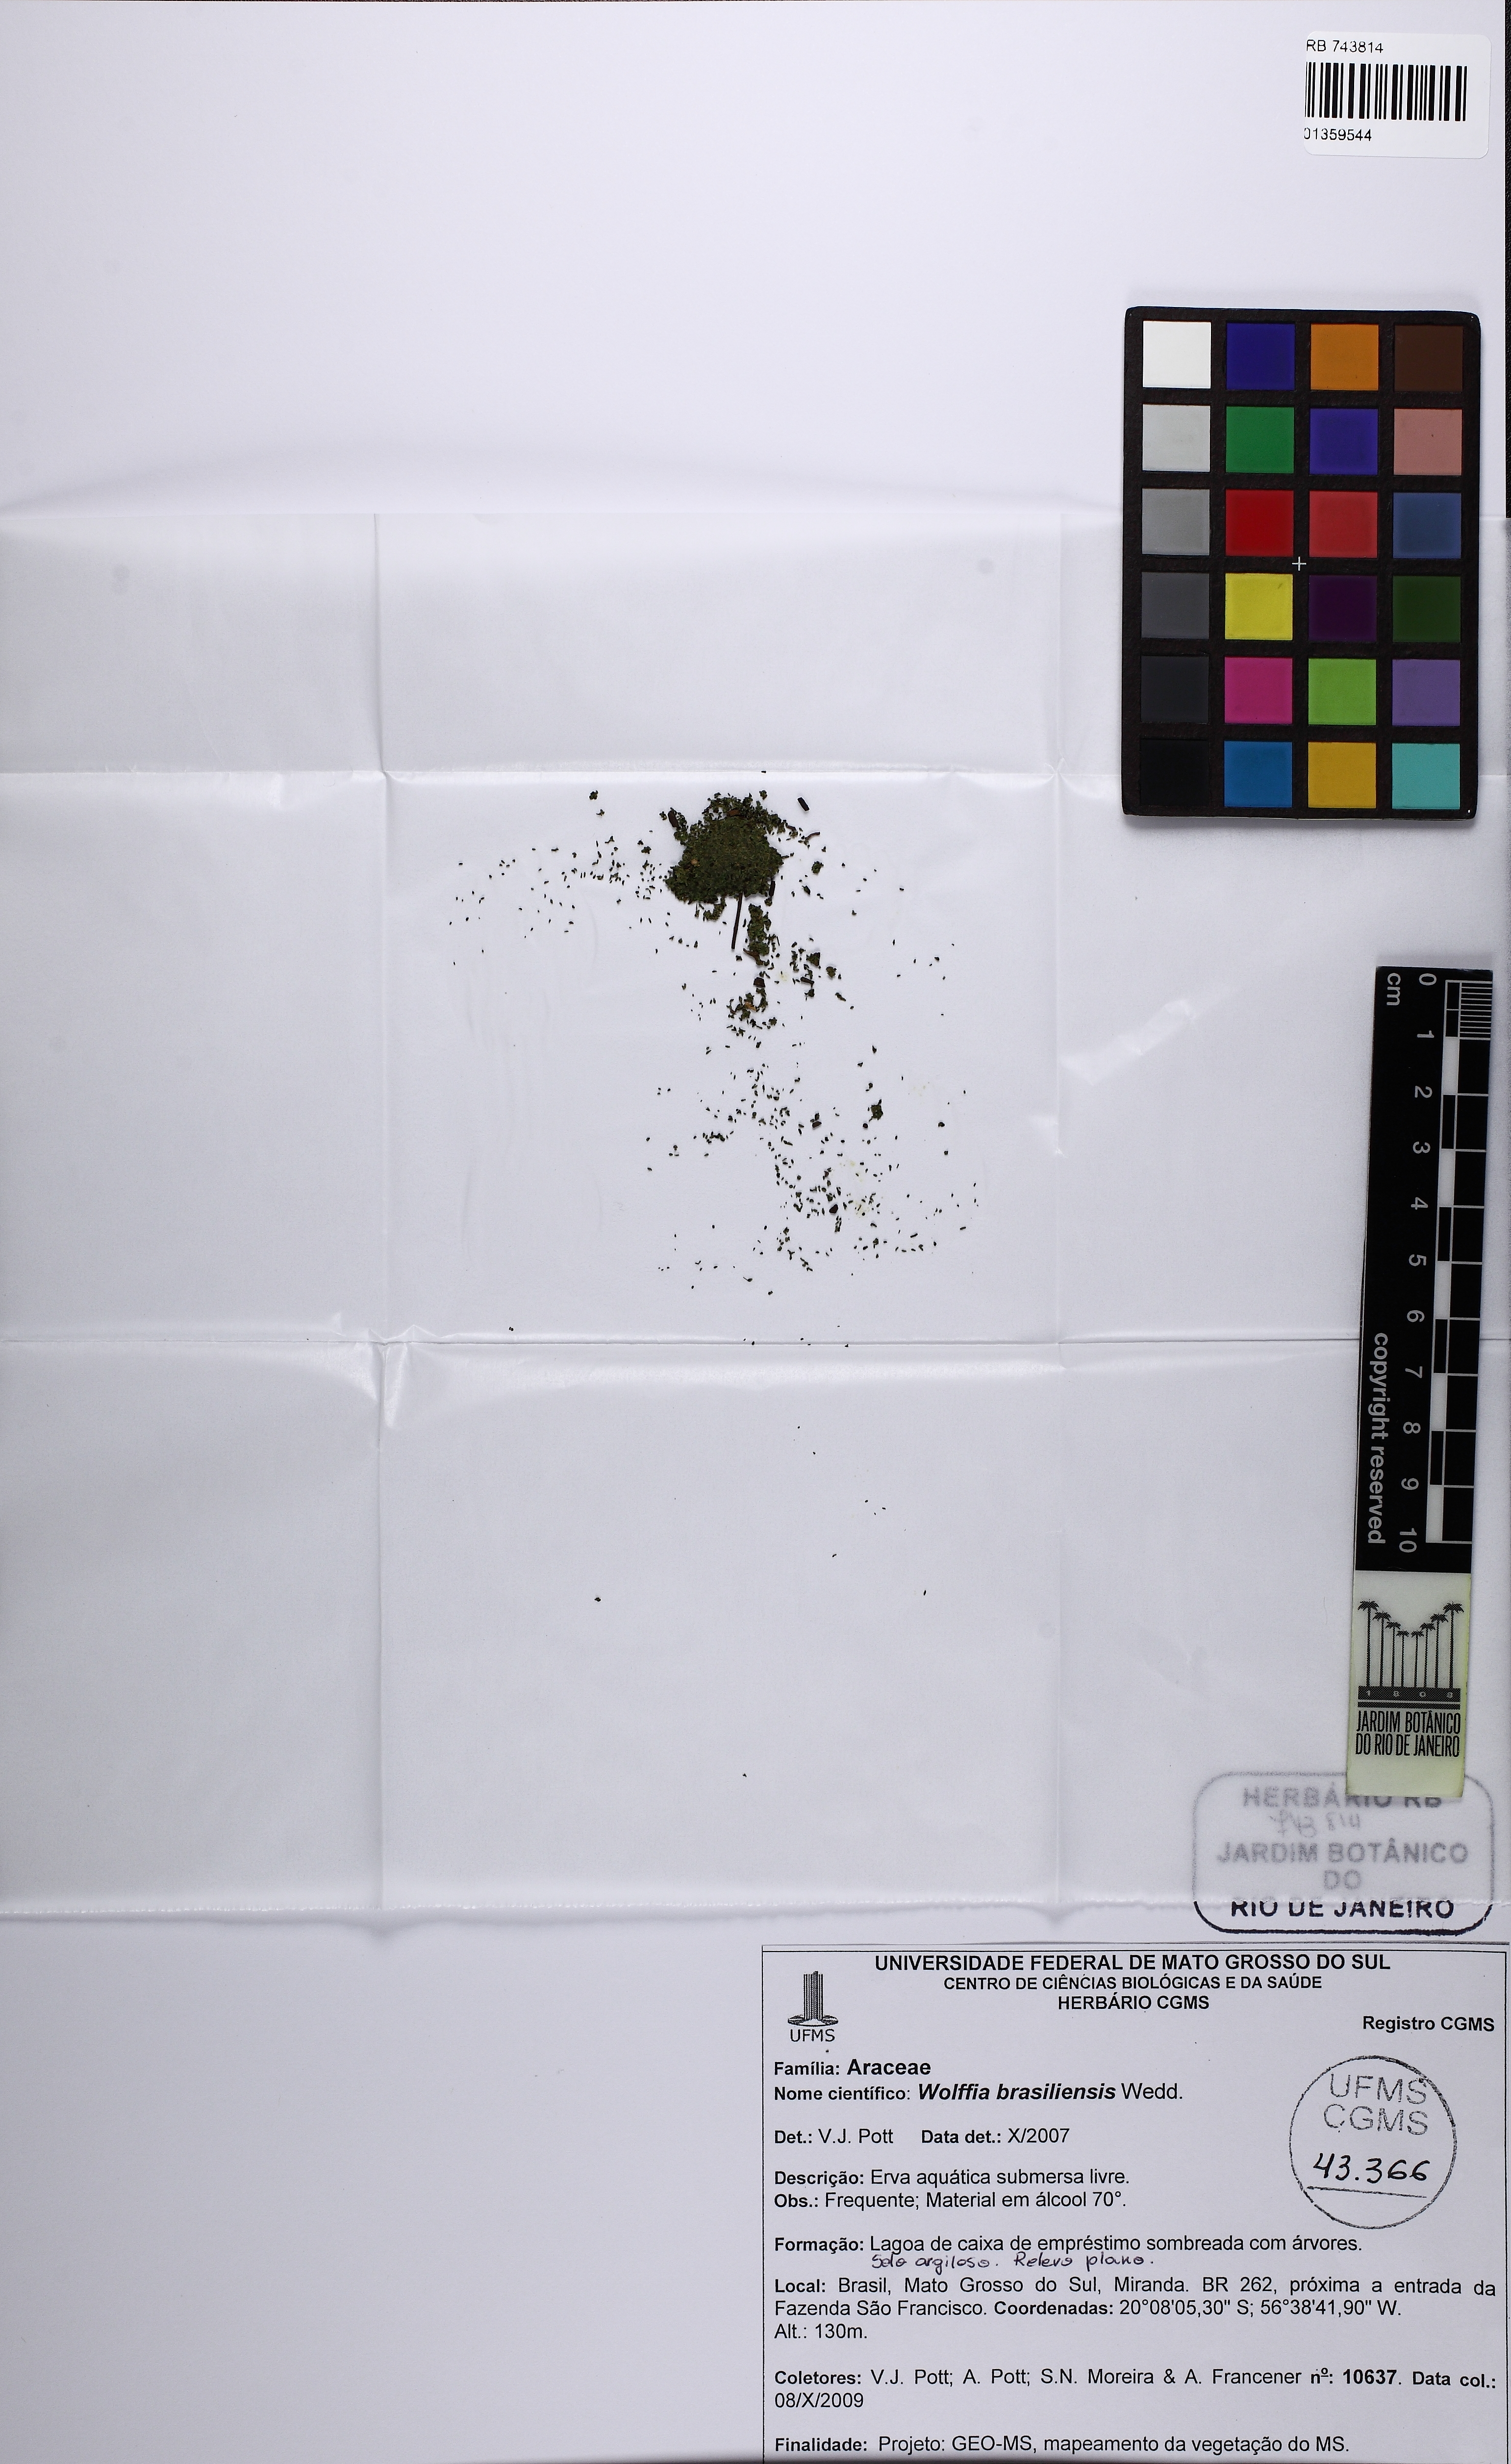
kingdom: Plantae
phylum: Tracheophyta
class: Liliopsida
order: Alismatales
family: Araceae
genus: Wolffia
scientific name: Wolffia brasiliensis
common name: Brazilian watermeal
